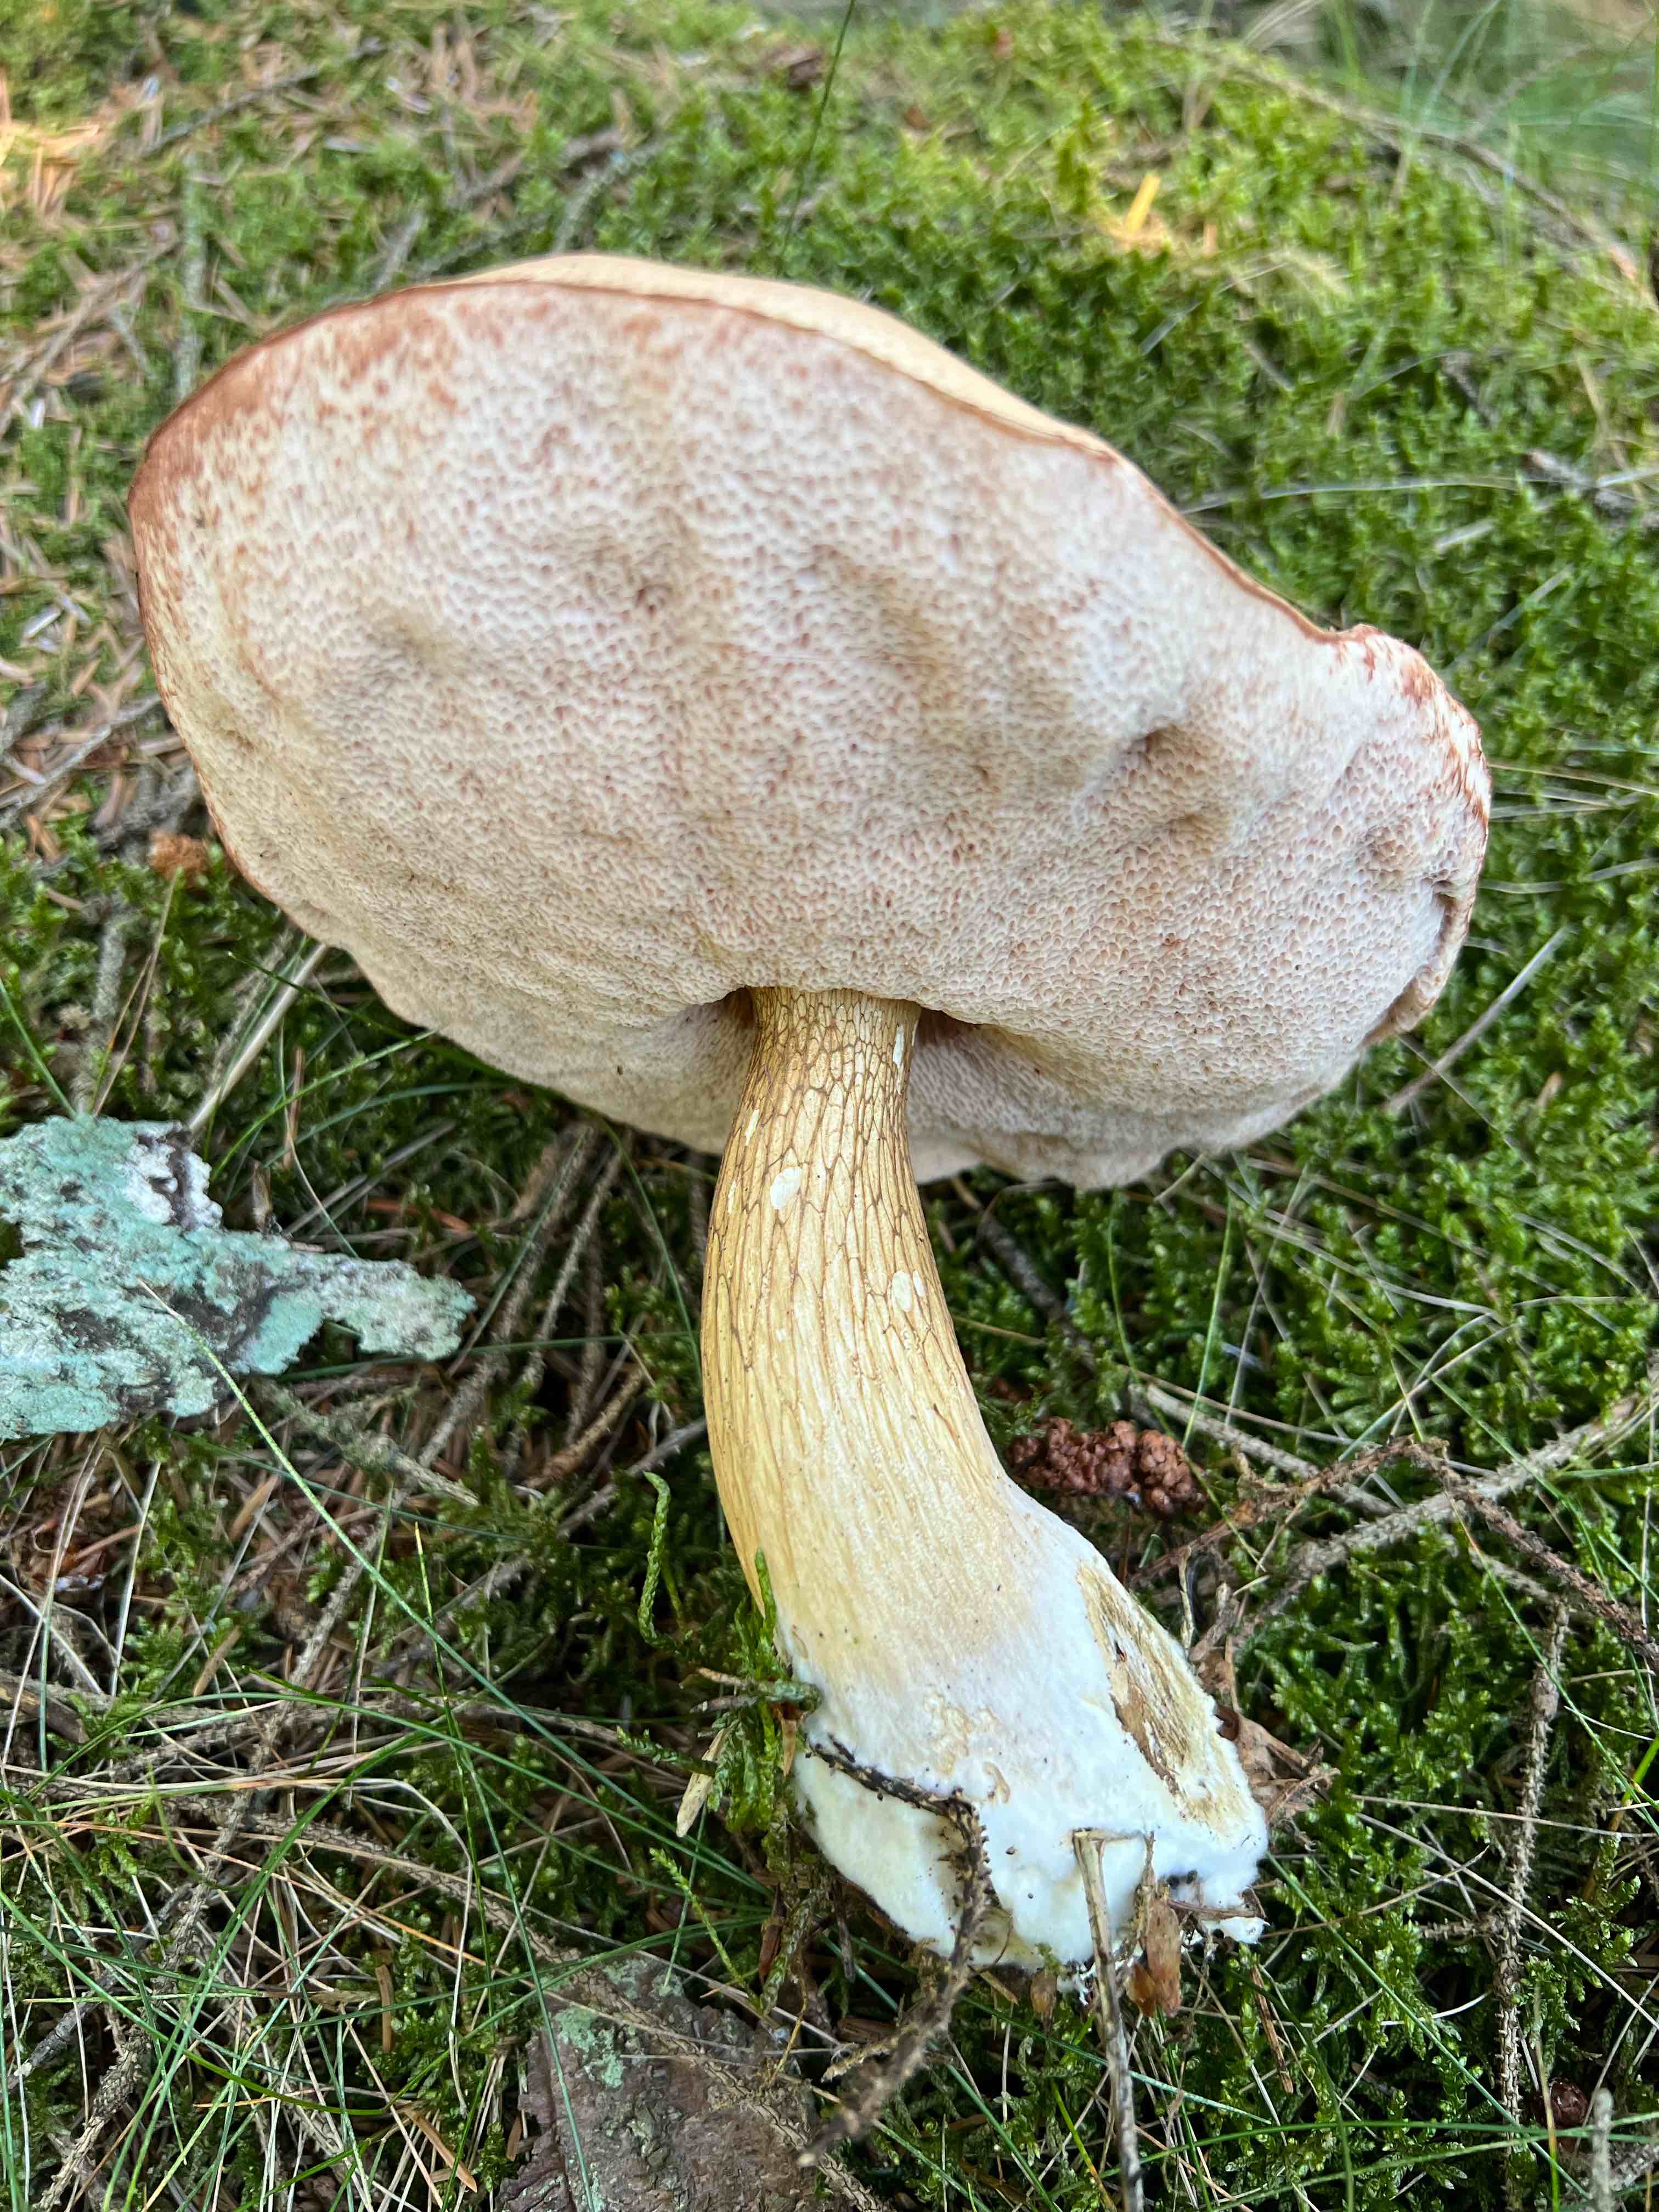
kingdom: Fungi
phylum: Basidiomycota
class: Agaricomycetes
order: Boletales
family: Boletaceae
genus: Tylopilus
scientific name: Tylopilus felleus
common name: galderørhat
